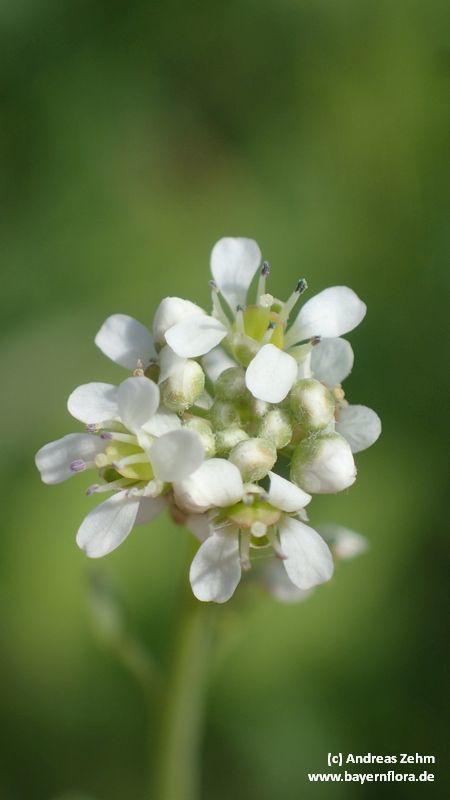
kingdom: Plantae
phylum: Tracheophyta
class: Magnoliopsida
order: Brassicales
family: Brassicaceae
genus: Lepidium
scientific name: Lepidium sativum
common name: Garden cress
